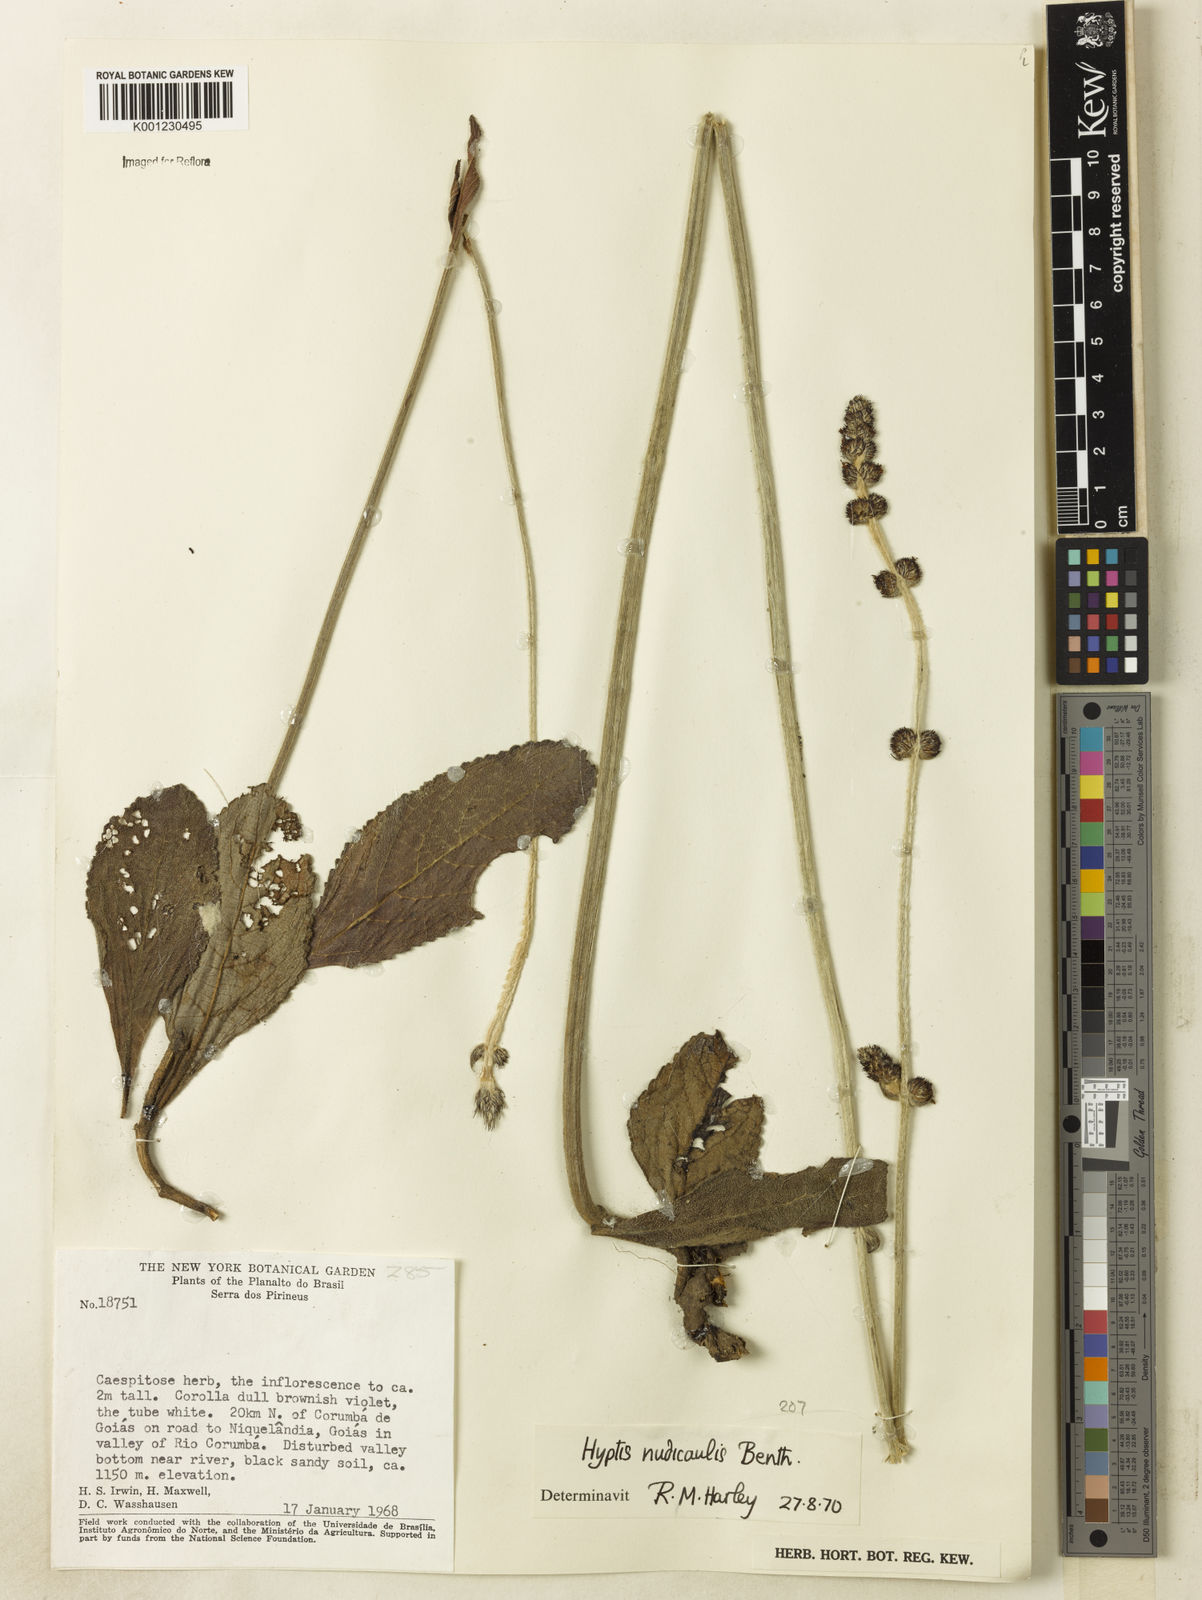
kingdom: Plantae
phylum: Tracheophyta
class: Magnoliopsida
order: Lamiales
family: Lamiaceae
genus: Hyptis
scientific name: Hyptis nudicaulis
